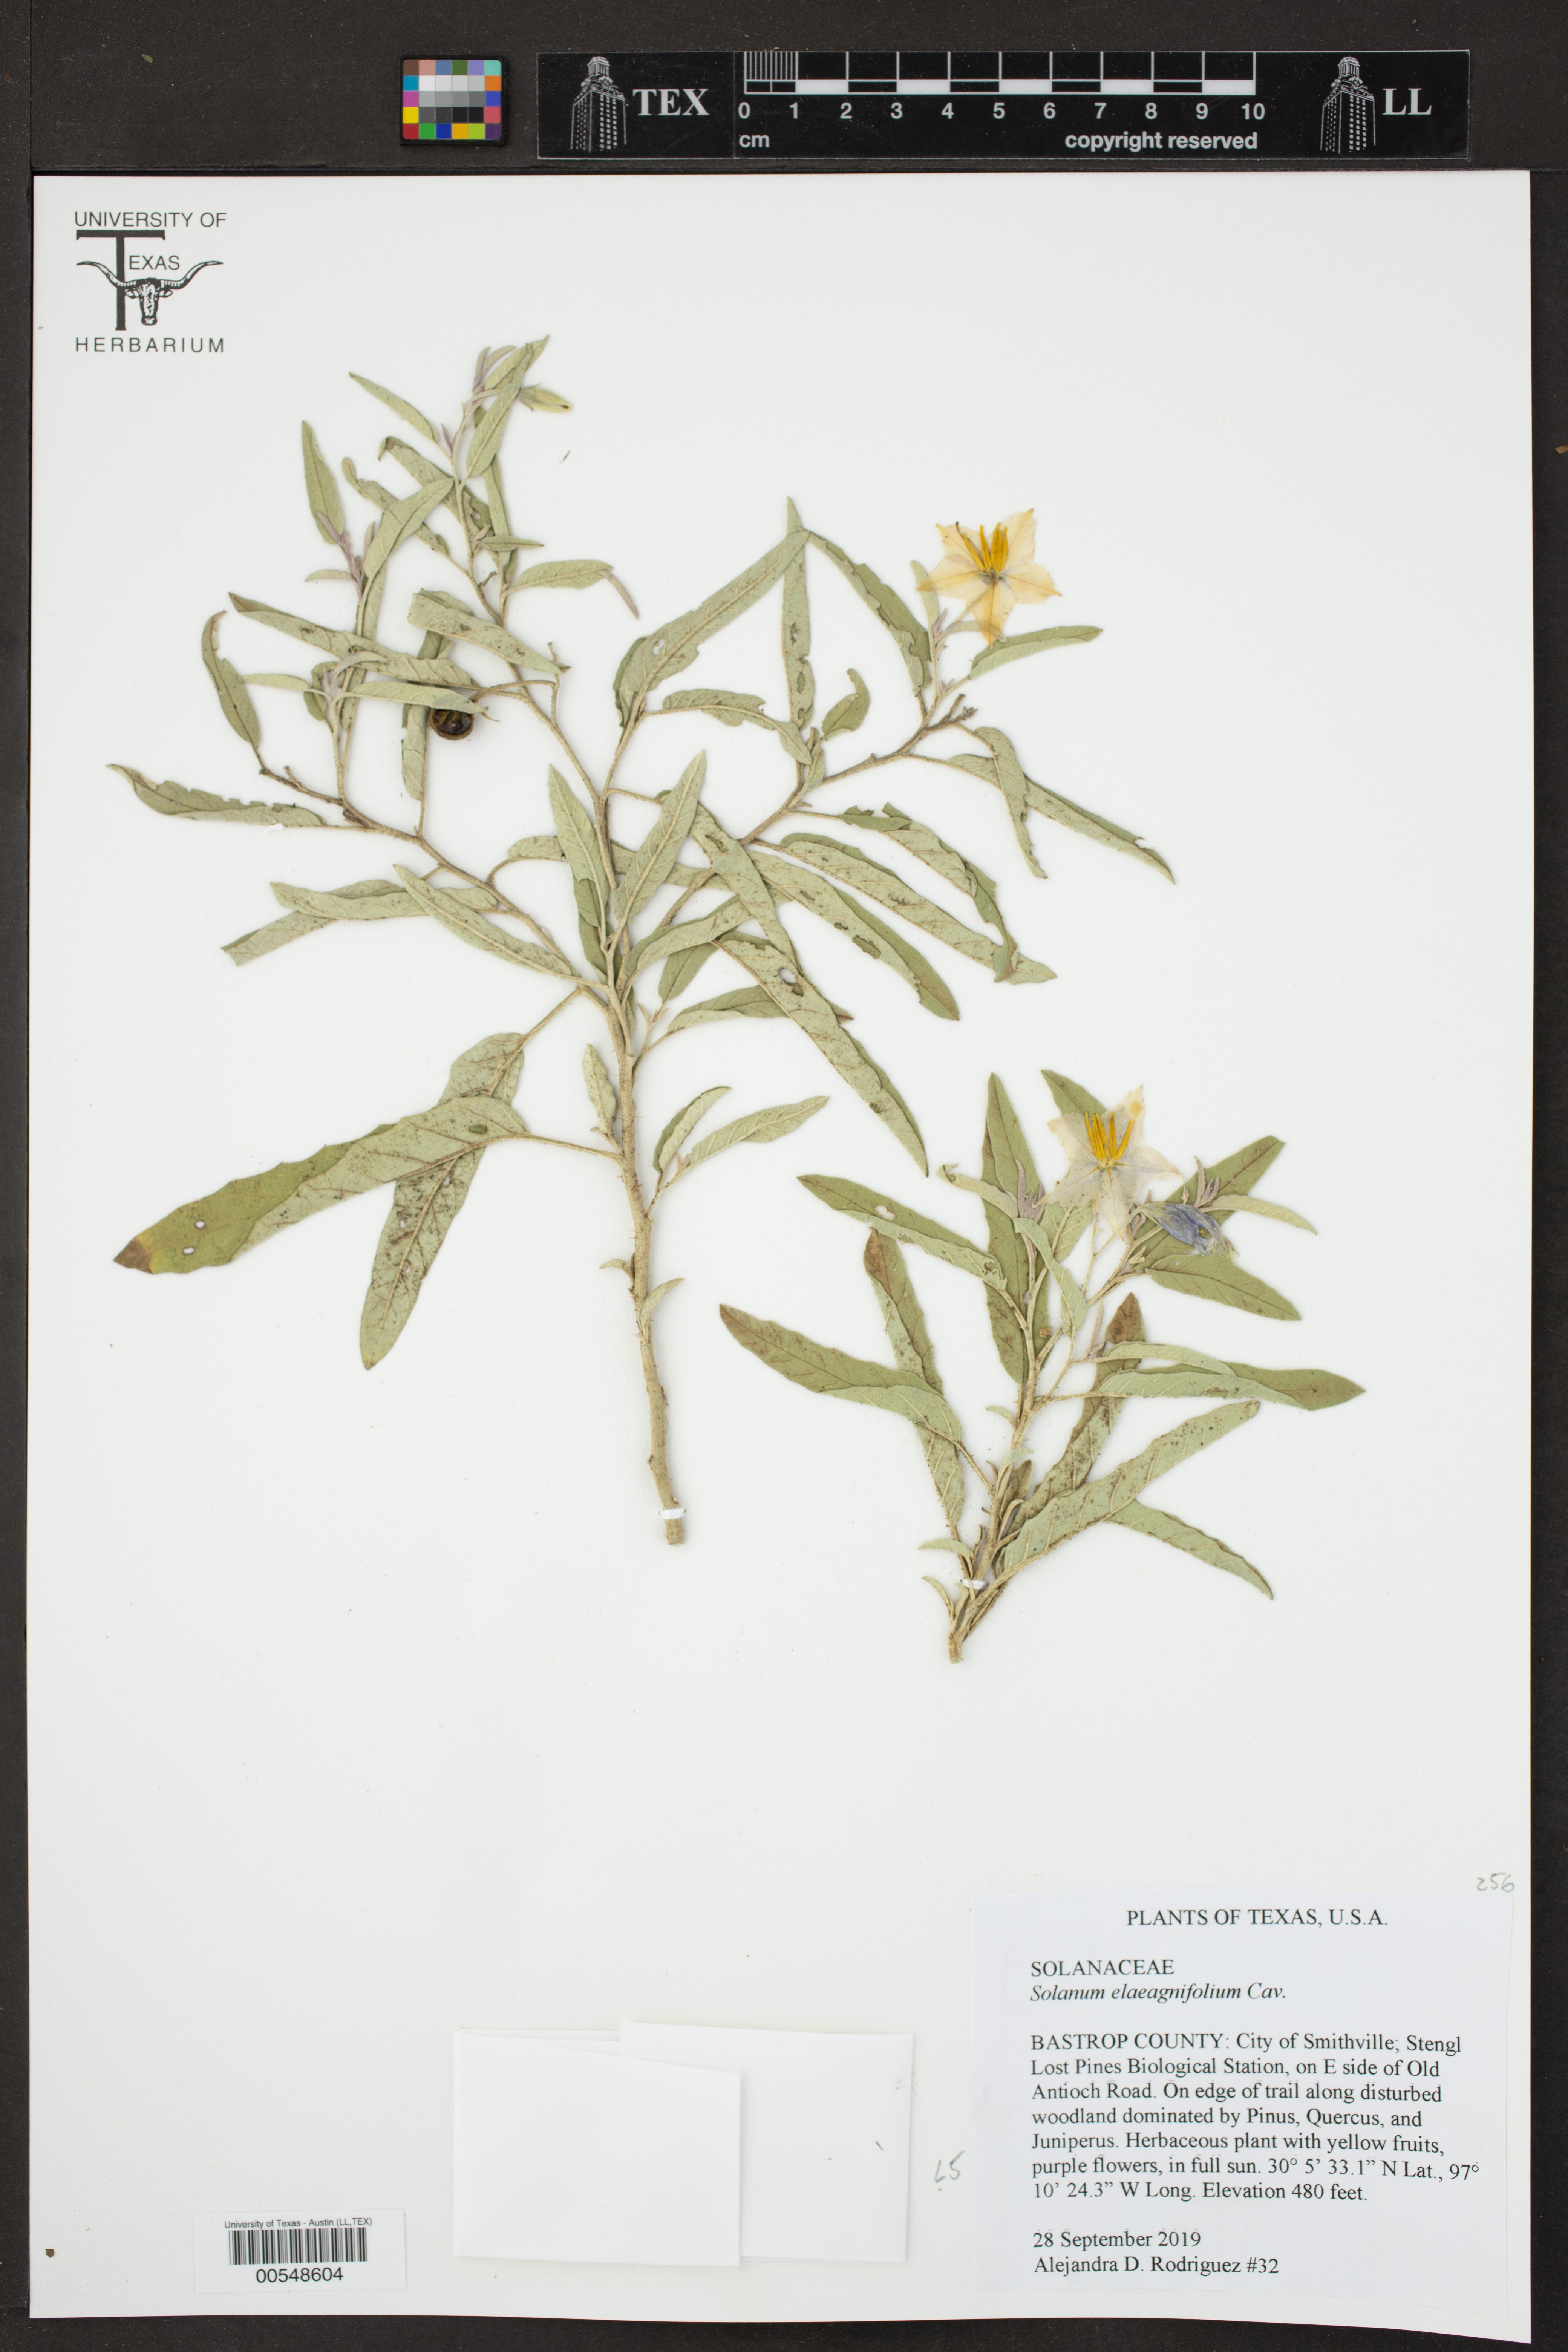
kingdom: Plantae
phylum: Tracheophyta
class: Magnoliopsida
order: Solanales
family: Solanaceae
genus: Solanum
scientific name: Solanum elaeagnifolium
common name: Silverleaf nightshade
